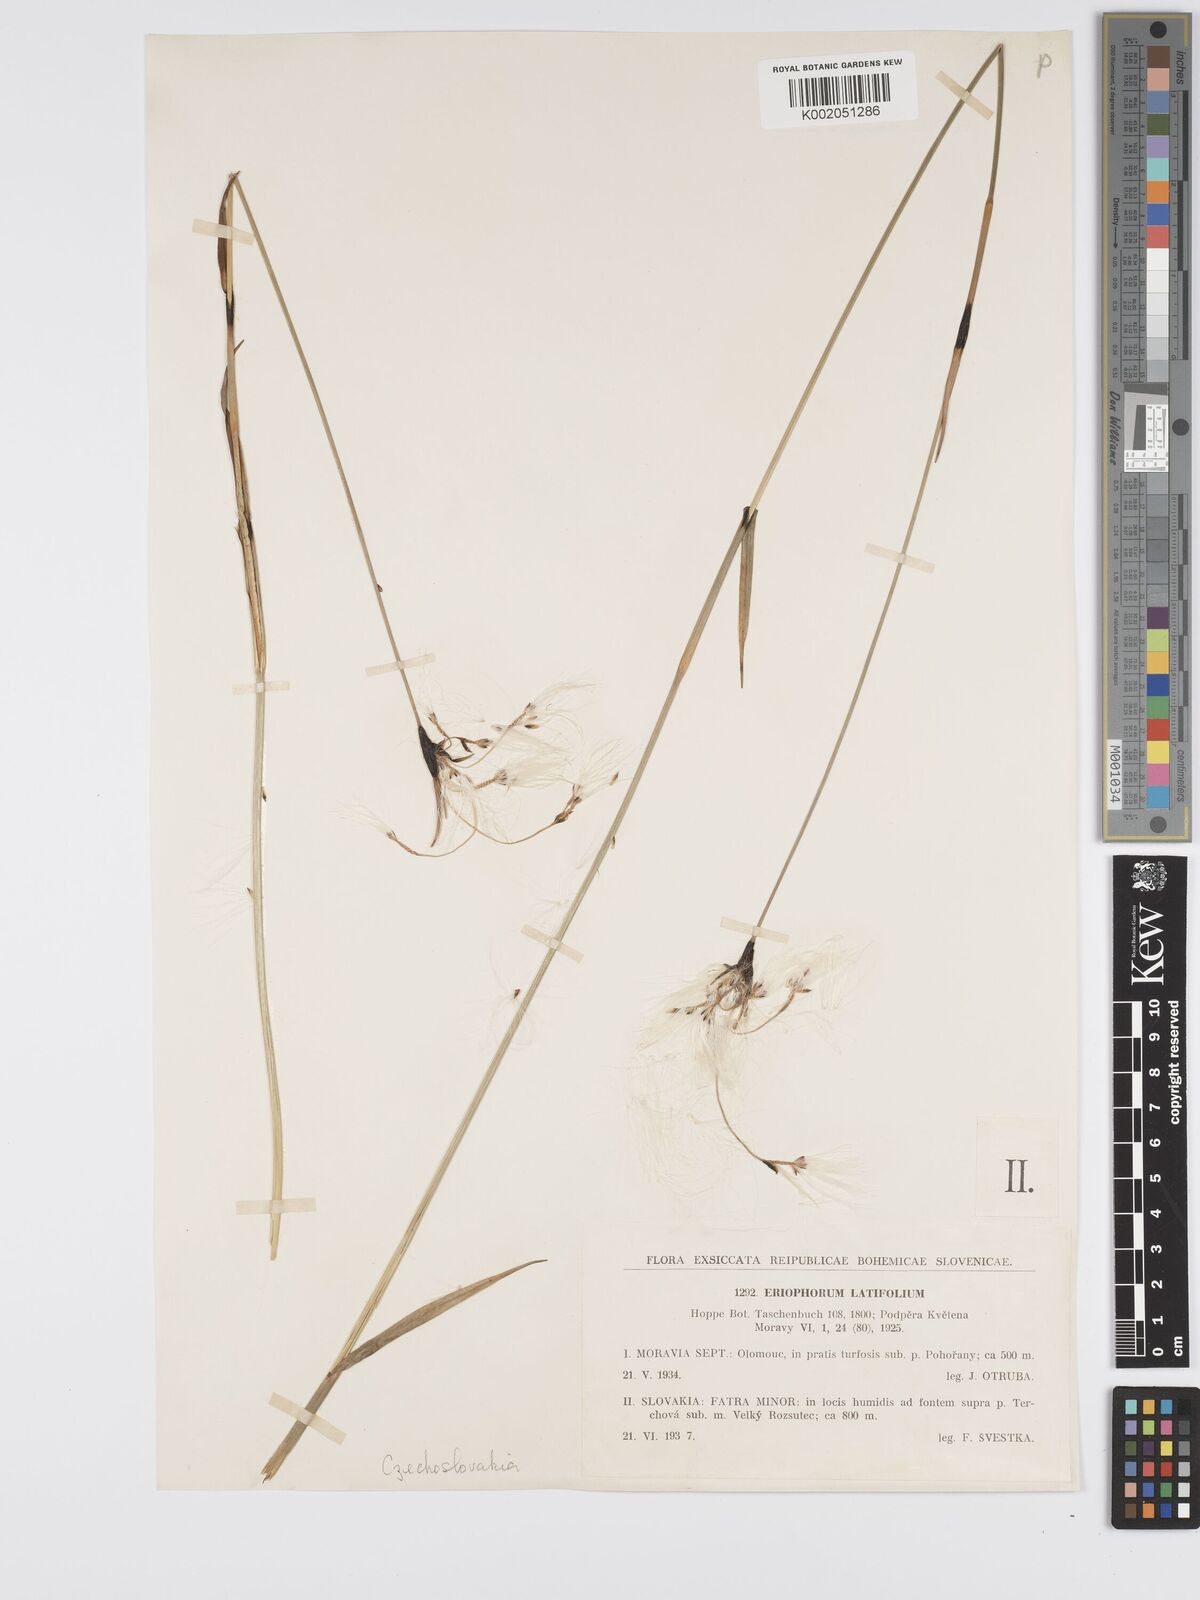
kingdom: Plantae
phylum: Tracheophyta
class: Liliopsida
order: Poales
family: Cyperaceae
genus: Eriophorum
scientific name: Eriophorum latifolium
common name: Broad-leaved cottongrass
